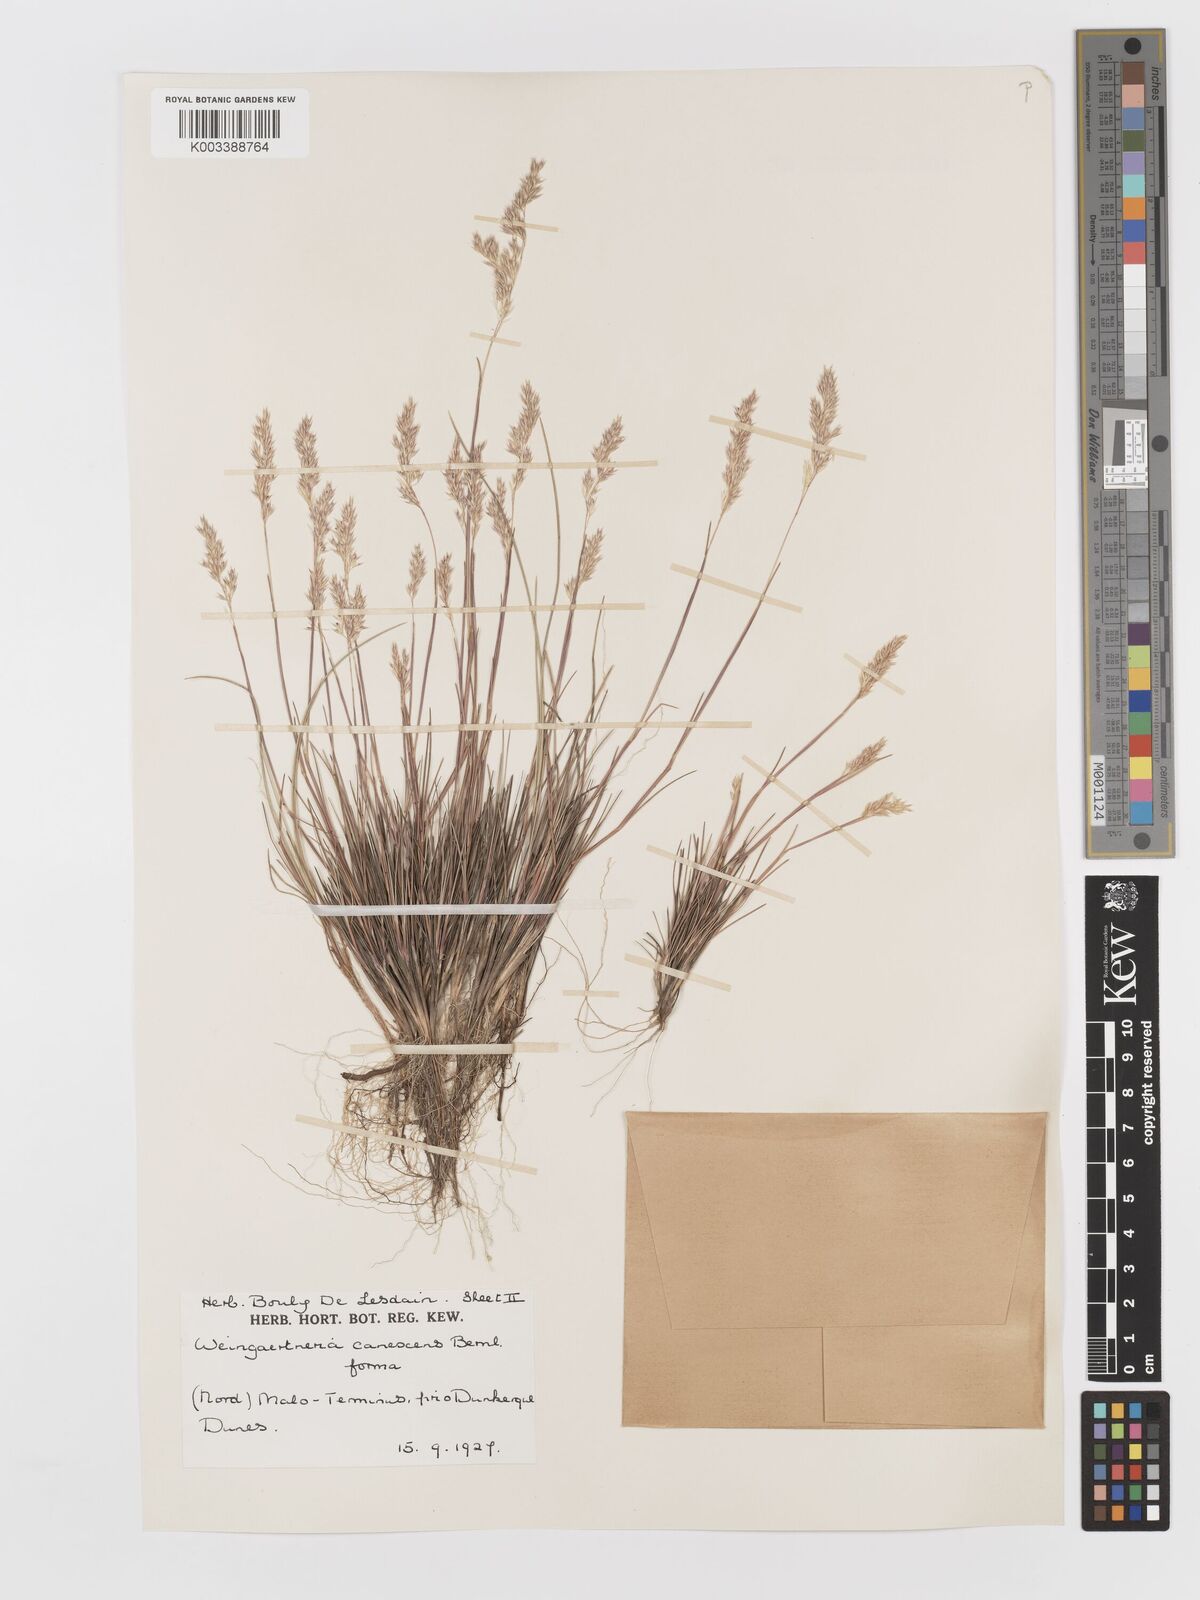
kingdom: Plantae
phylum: Tracheophyta
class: Liliopsida
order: Poales
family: Poaceae
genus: Corynephorus
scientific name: Corynephorus canescens
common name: Grey hair-grass
